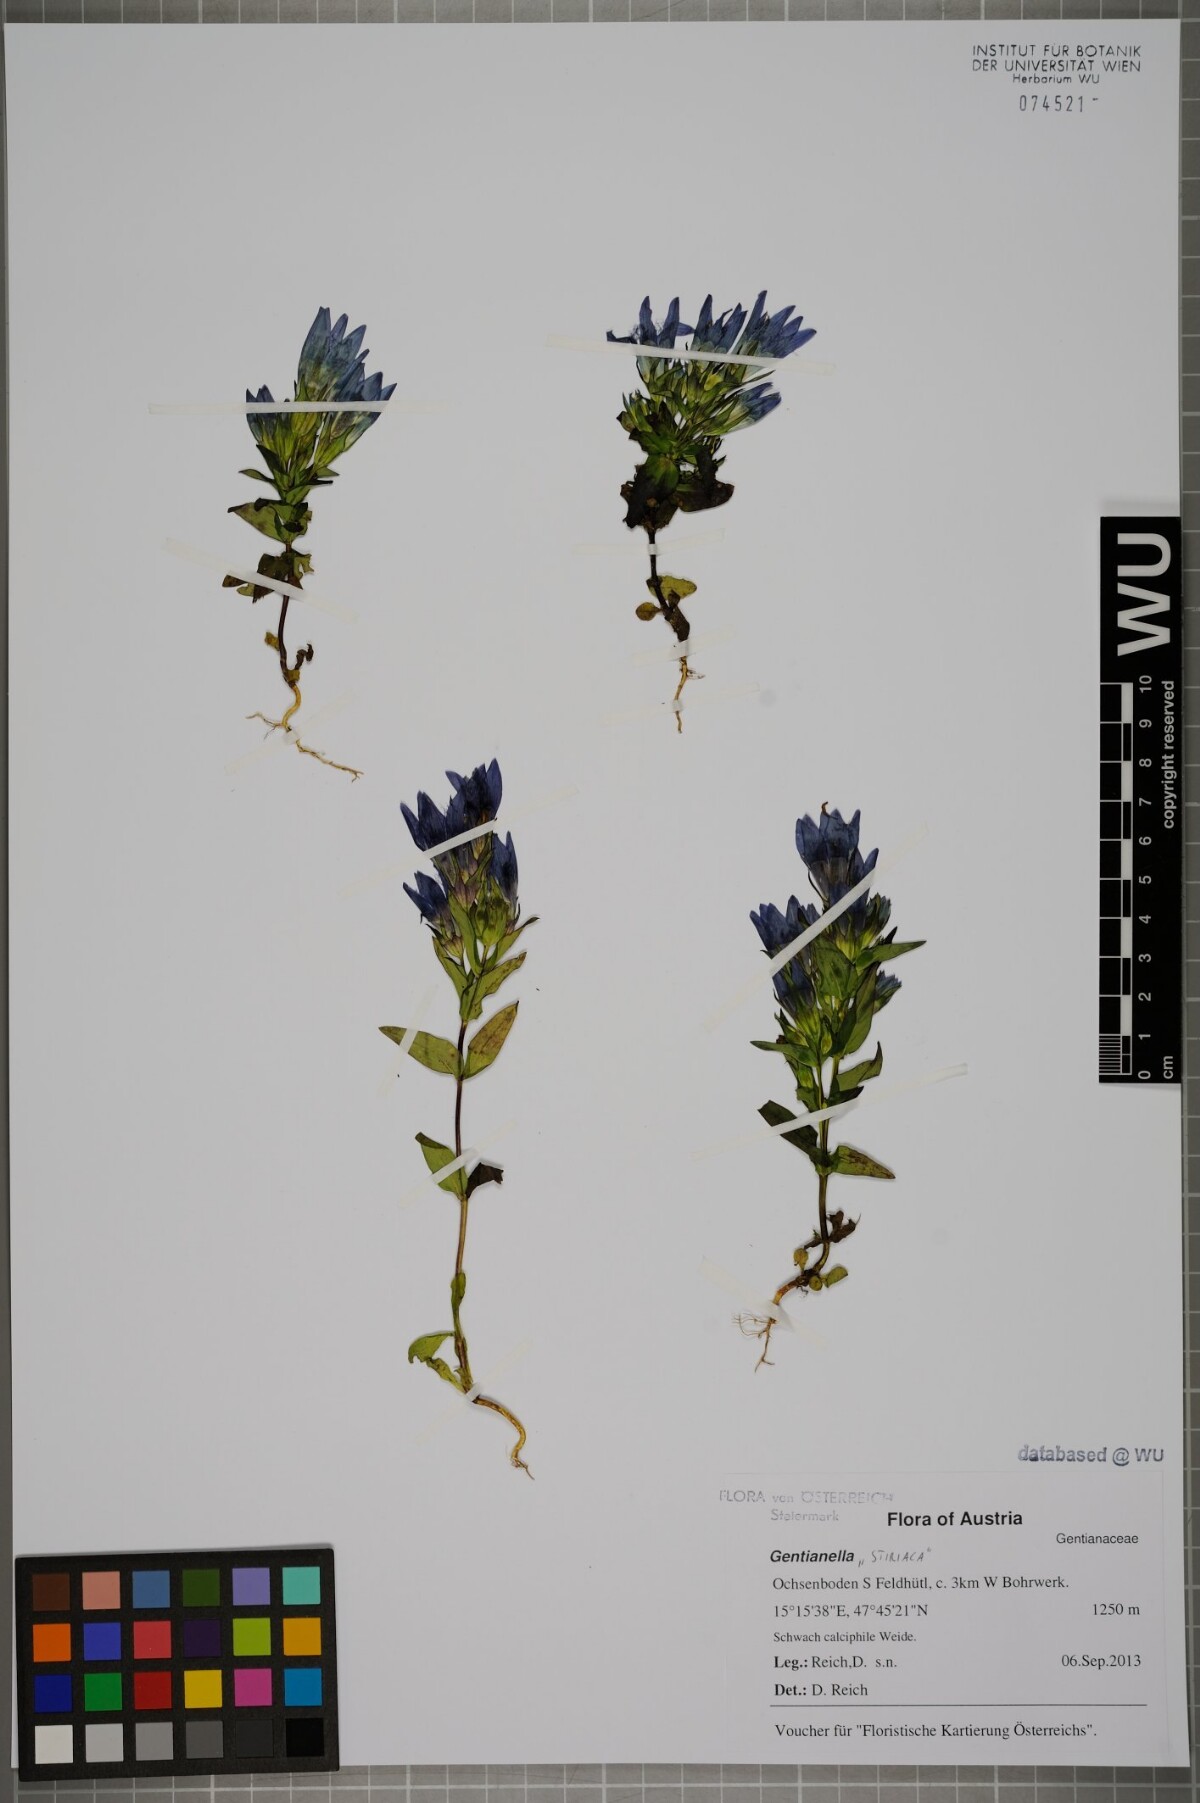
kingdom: Plantae
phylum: Tracheophyta
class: Magnoliopsida
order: Gentianales
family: Gentianaceae
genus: Gentianella
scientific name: Gentianella
